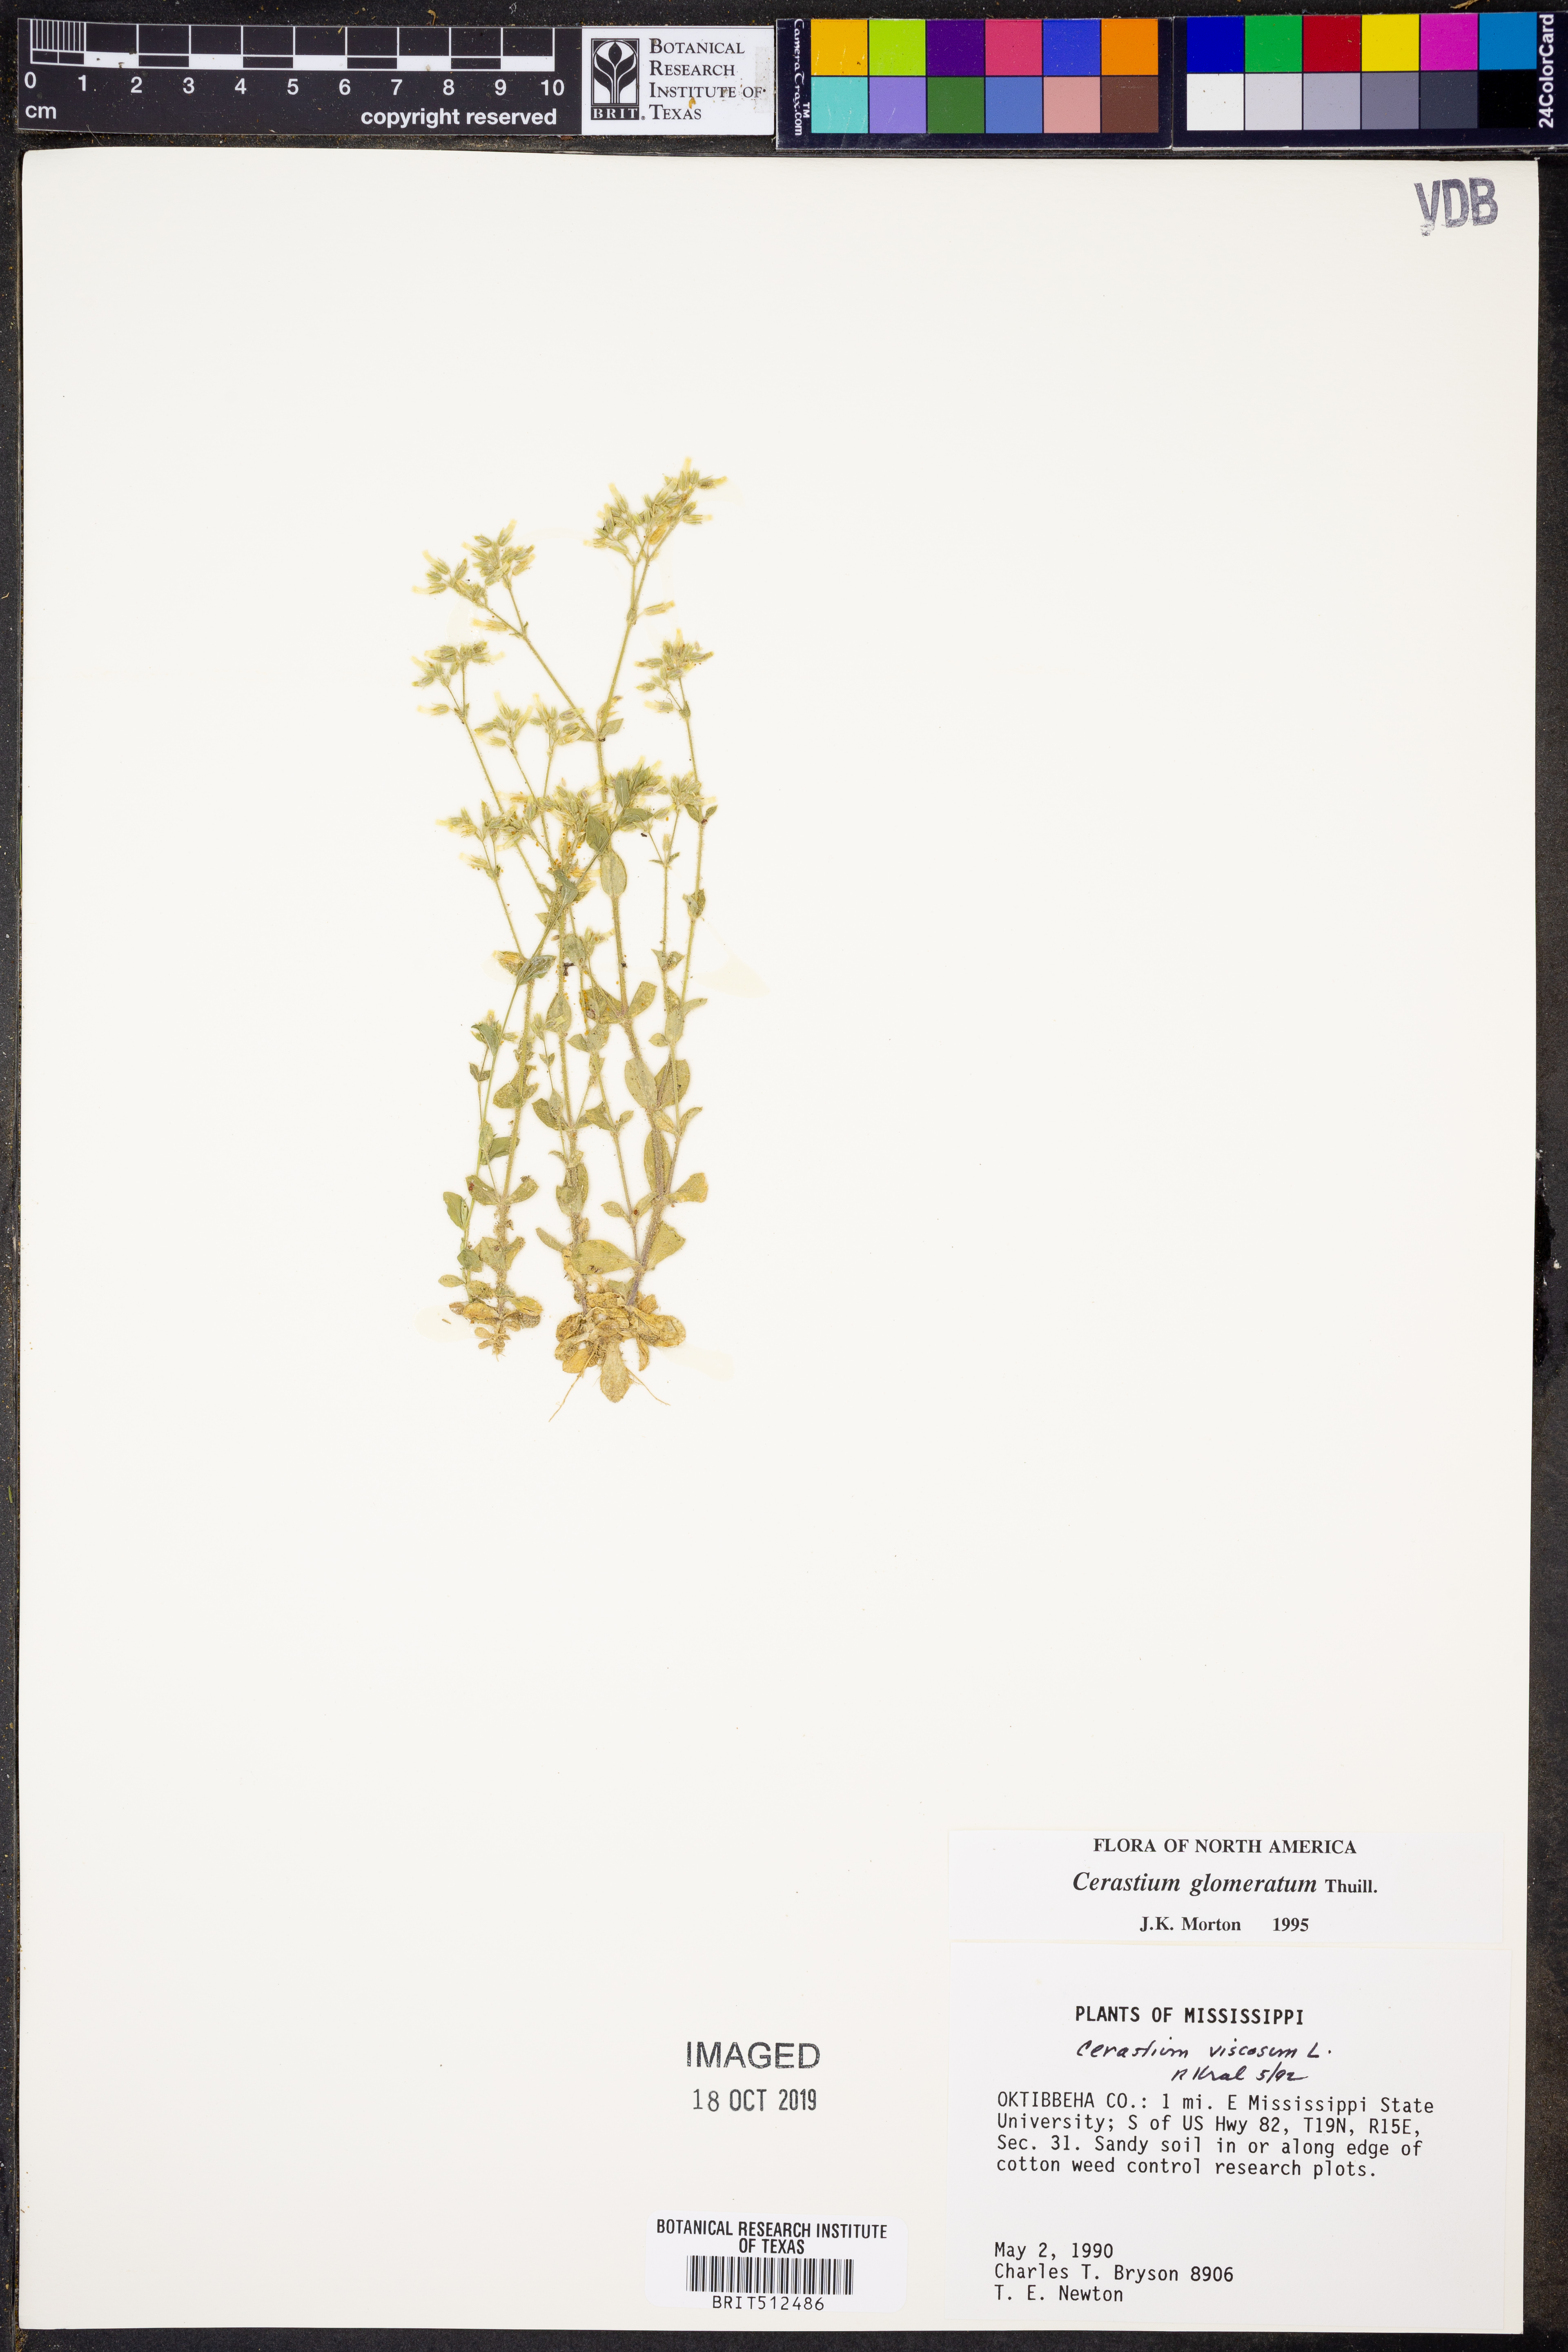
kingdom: Plantae
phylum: Tracheophyta
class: Magnoliopsida
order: Caryophyllales
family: Caryophyllaceae
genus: Cerastium
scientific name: Cerastium glomeratum
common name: Sticky chickweed
